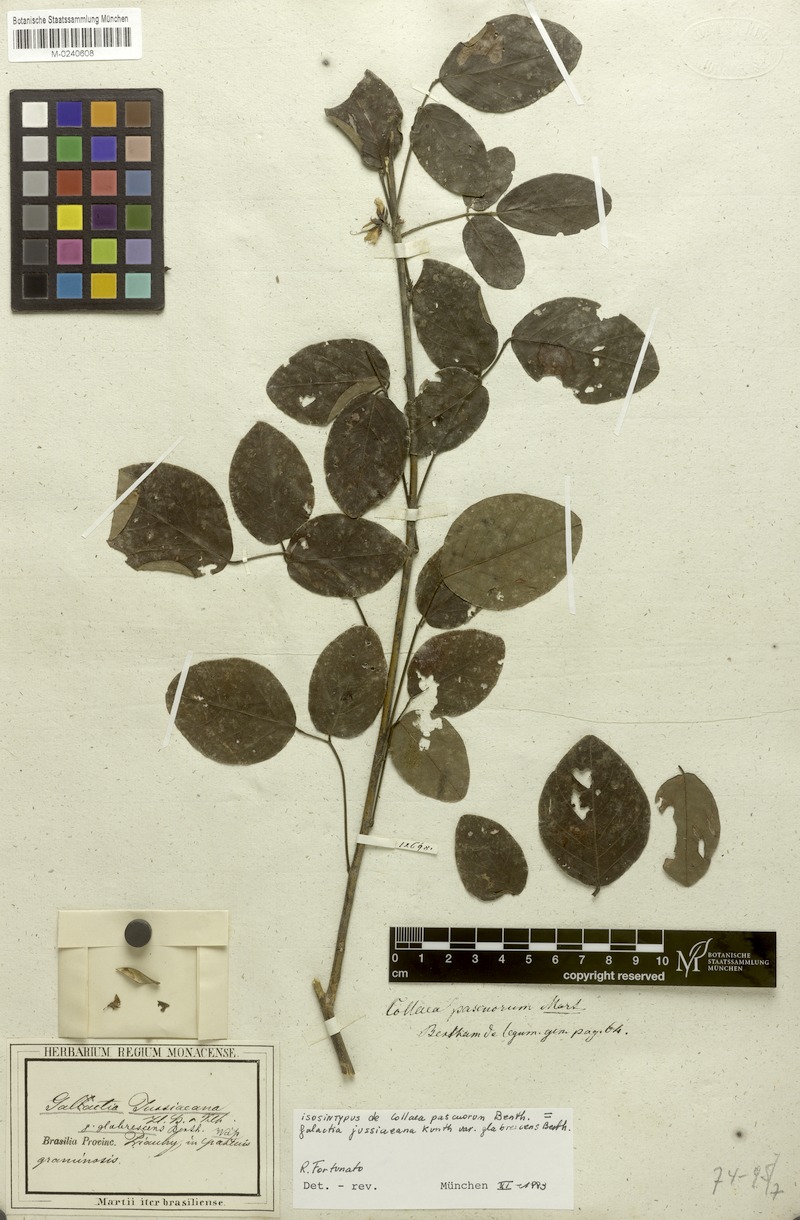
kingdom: Plantae
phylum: Tracheophyta
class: Magnoliopsida
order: Fabales
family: Fabaceae
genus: Galactia
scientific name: Galactia jussiaeana
